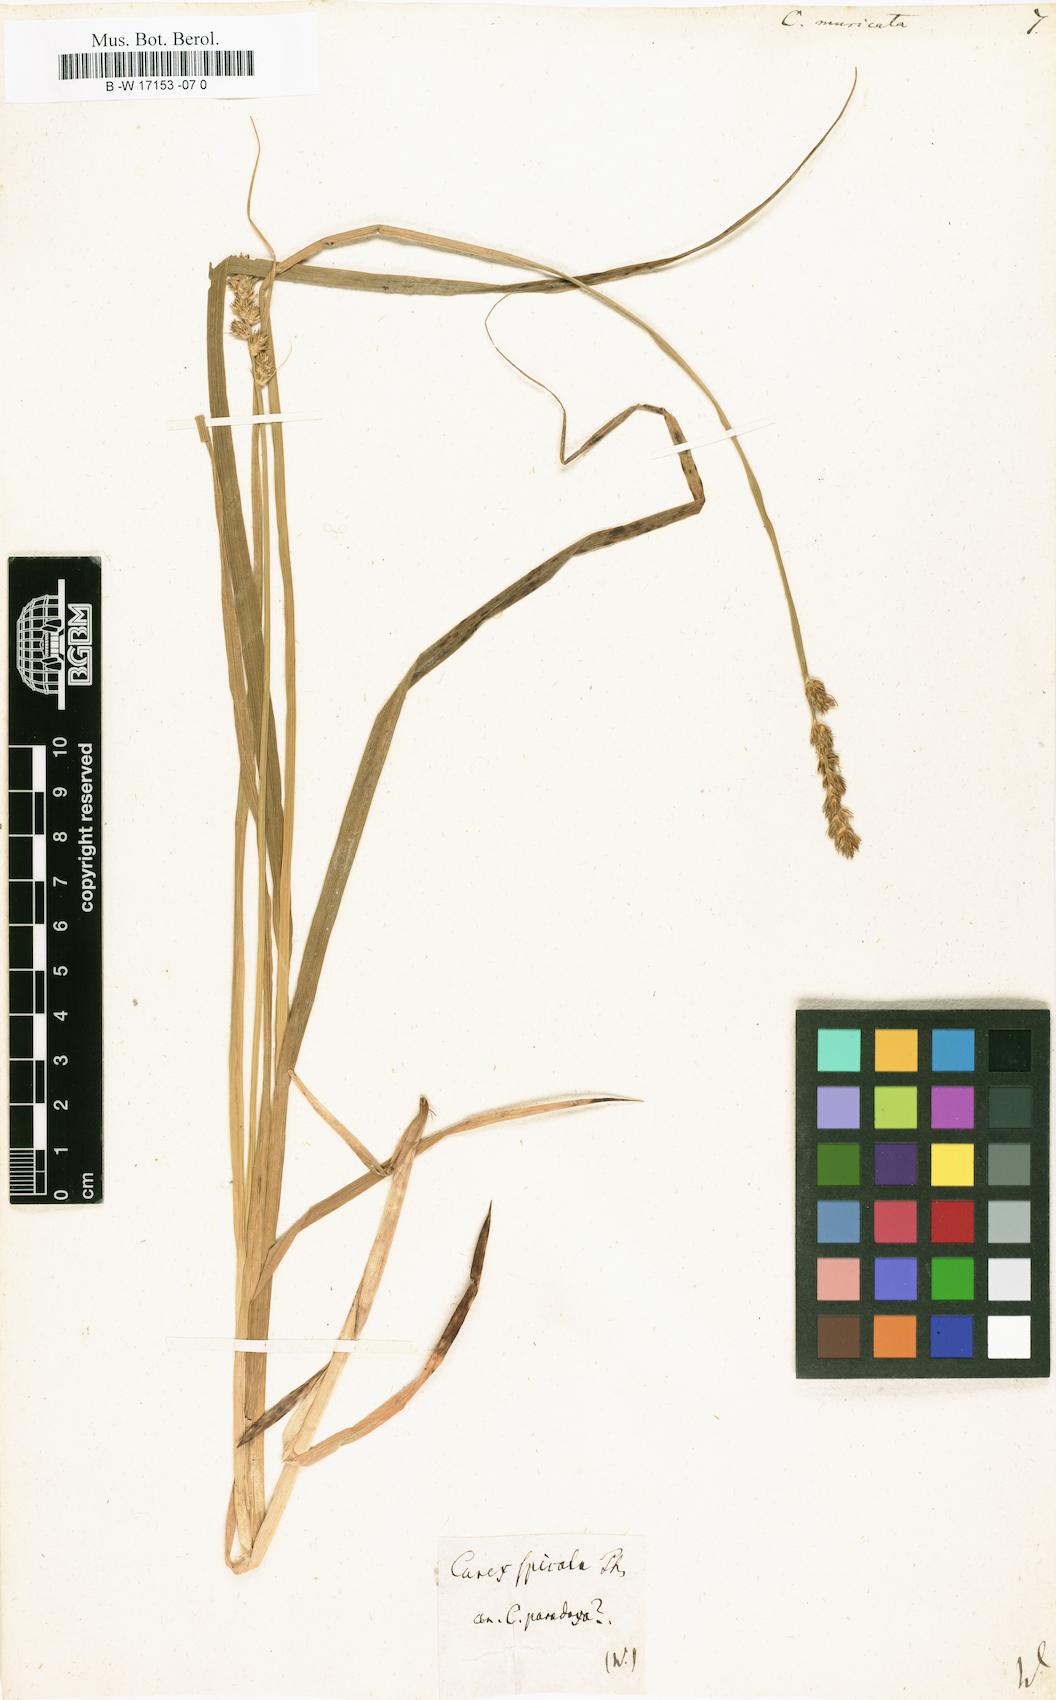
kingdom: Plantae
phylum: Tracheophyta
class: Liliopsida
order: Poales
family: Cyperaceae
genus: Carex
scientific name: Carex muricata
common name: Rough sedge
